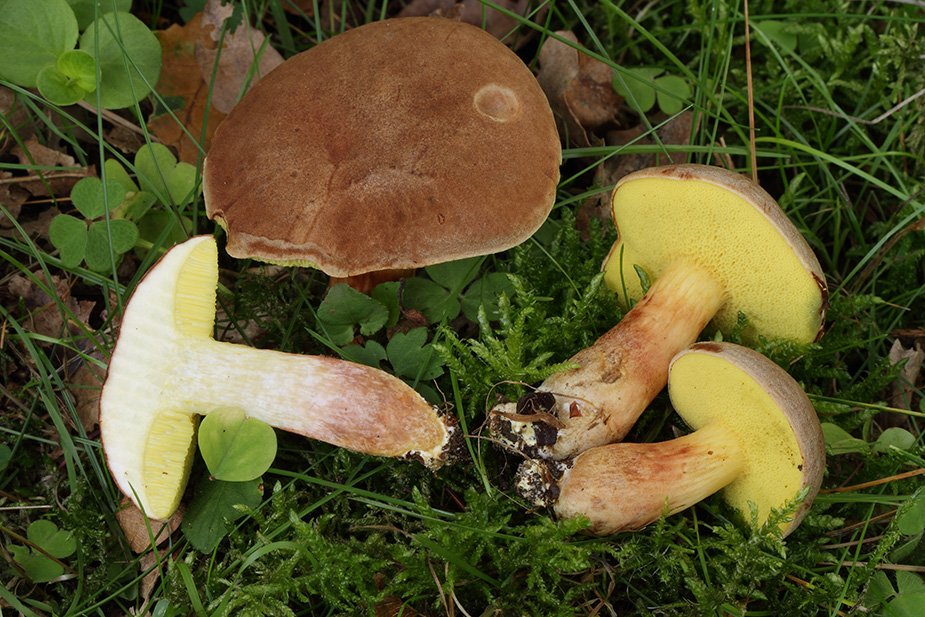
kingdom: Fungi
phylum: Basidiomycota
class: Agaricomycetes
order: Boletales
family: Boletaceae
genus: Xerocomus
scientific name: Xerocomus subtomentosus
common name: filtet rørhat
